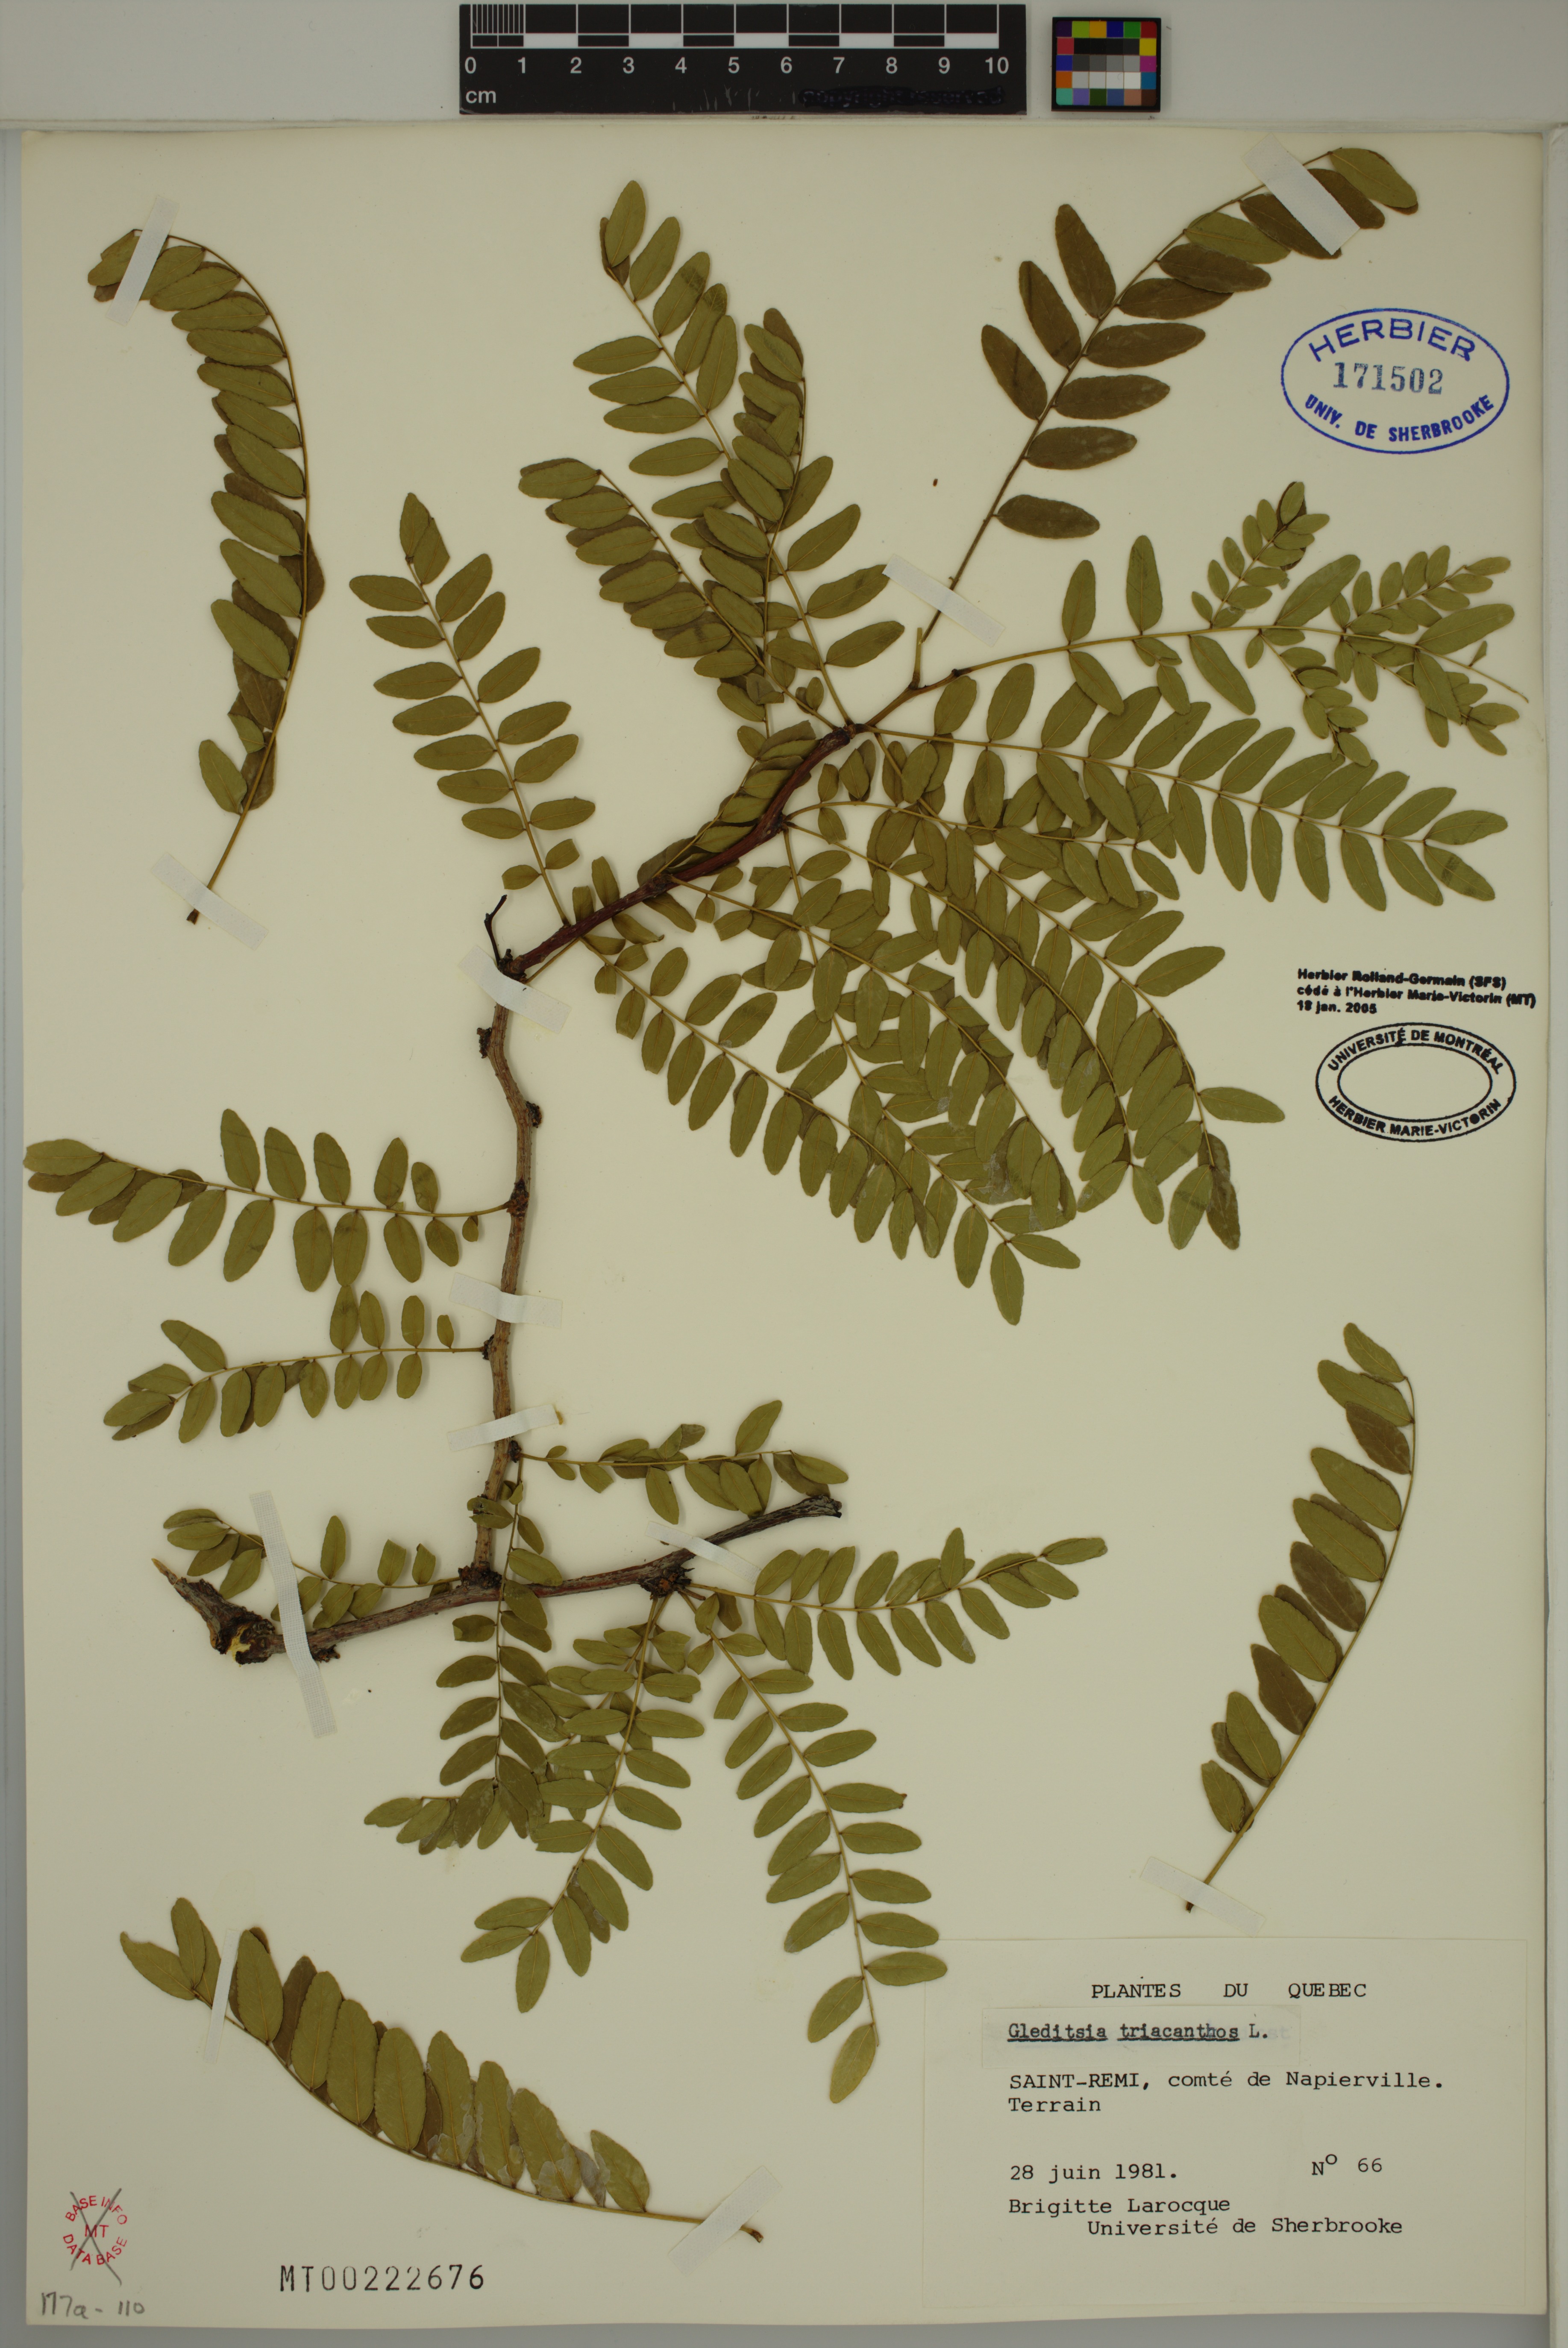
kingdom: Plantae
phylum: Tracheophyta
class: Magnoliopsida
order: Fabales
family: Fabaceae
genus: Gleditsia
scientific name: Gleditsia triacanthos
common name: Common honeylocust
